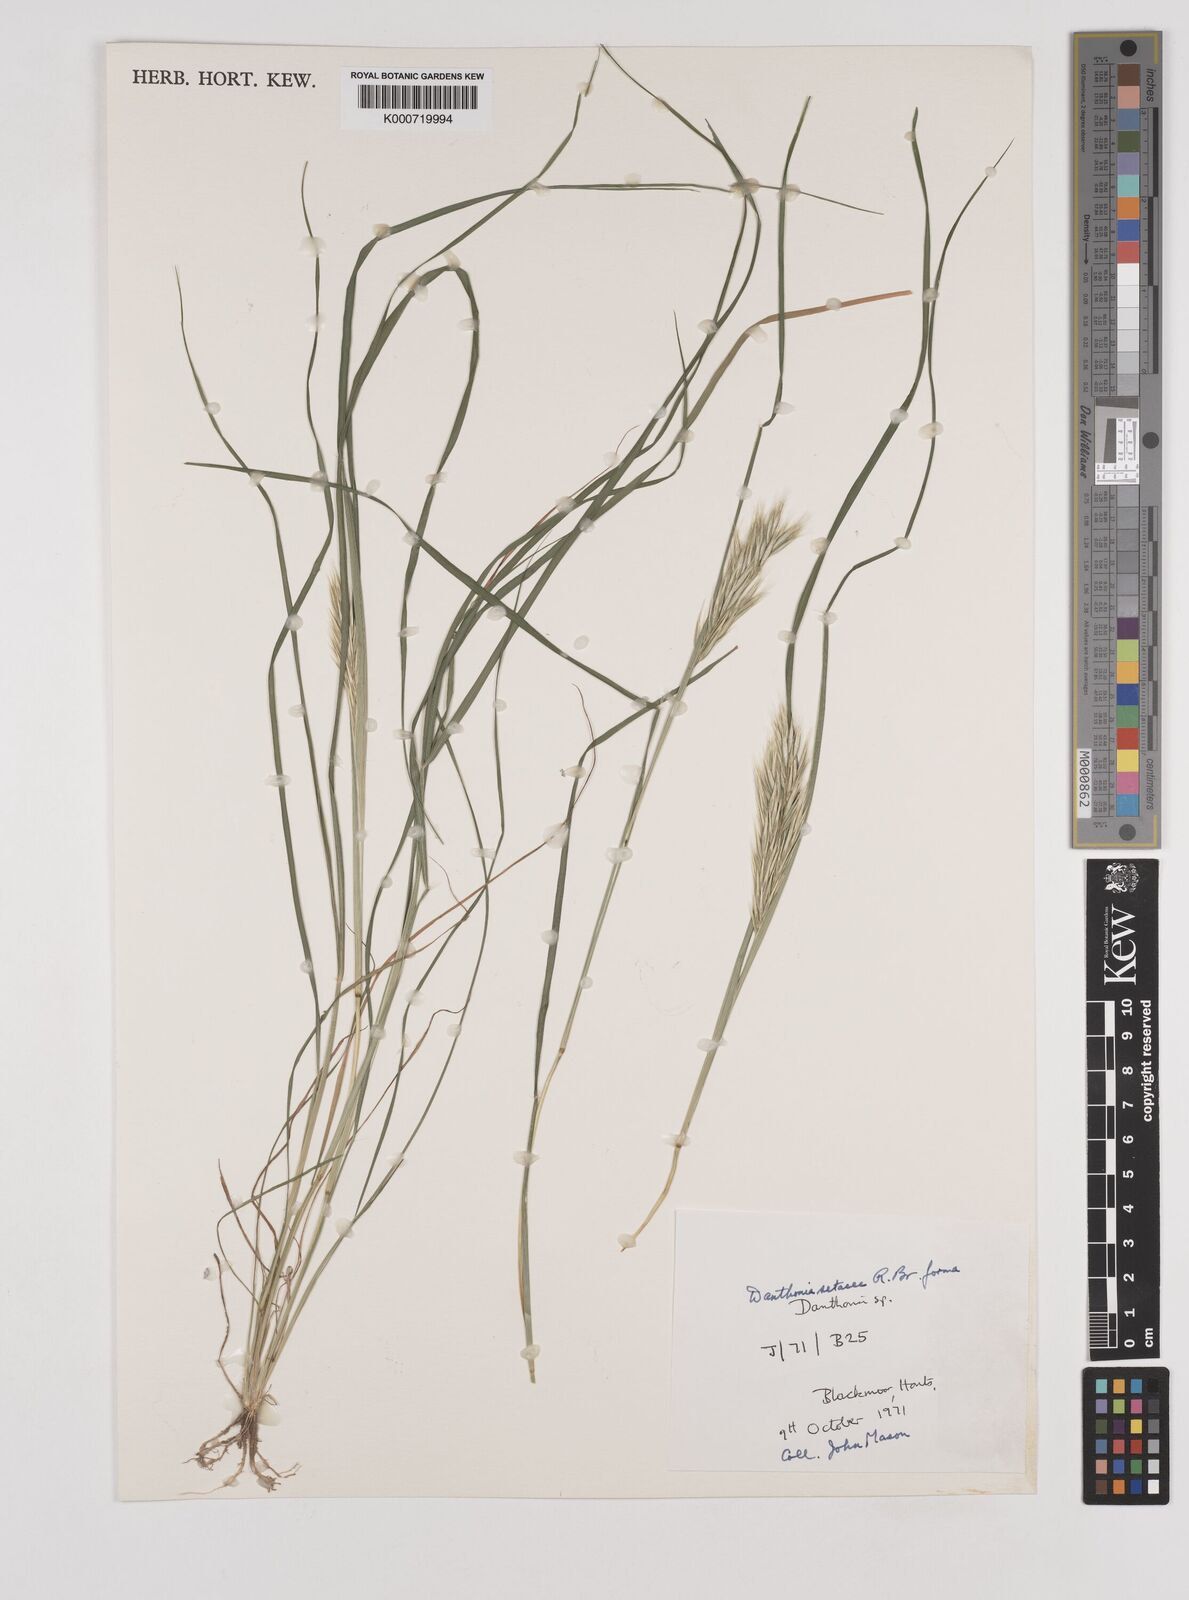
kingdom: Plantae
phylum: Tracheophyta
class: Liliopsida
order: Poales
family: Poaceae
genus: Rytidosperma
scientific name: Rytidosperma setaceum
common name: Small-flower wallaby grass
